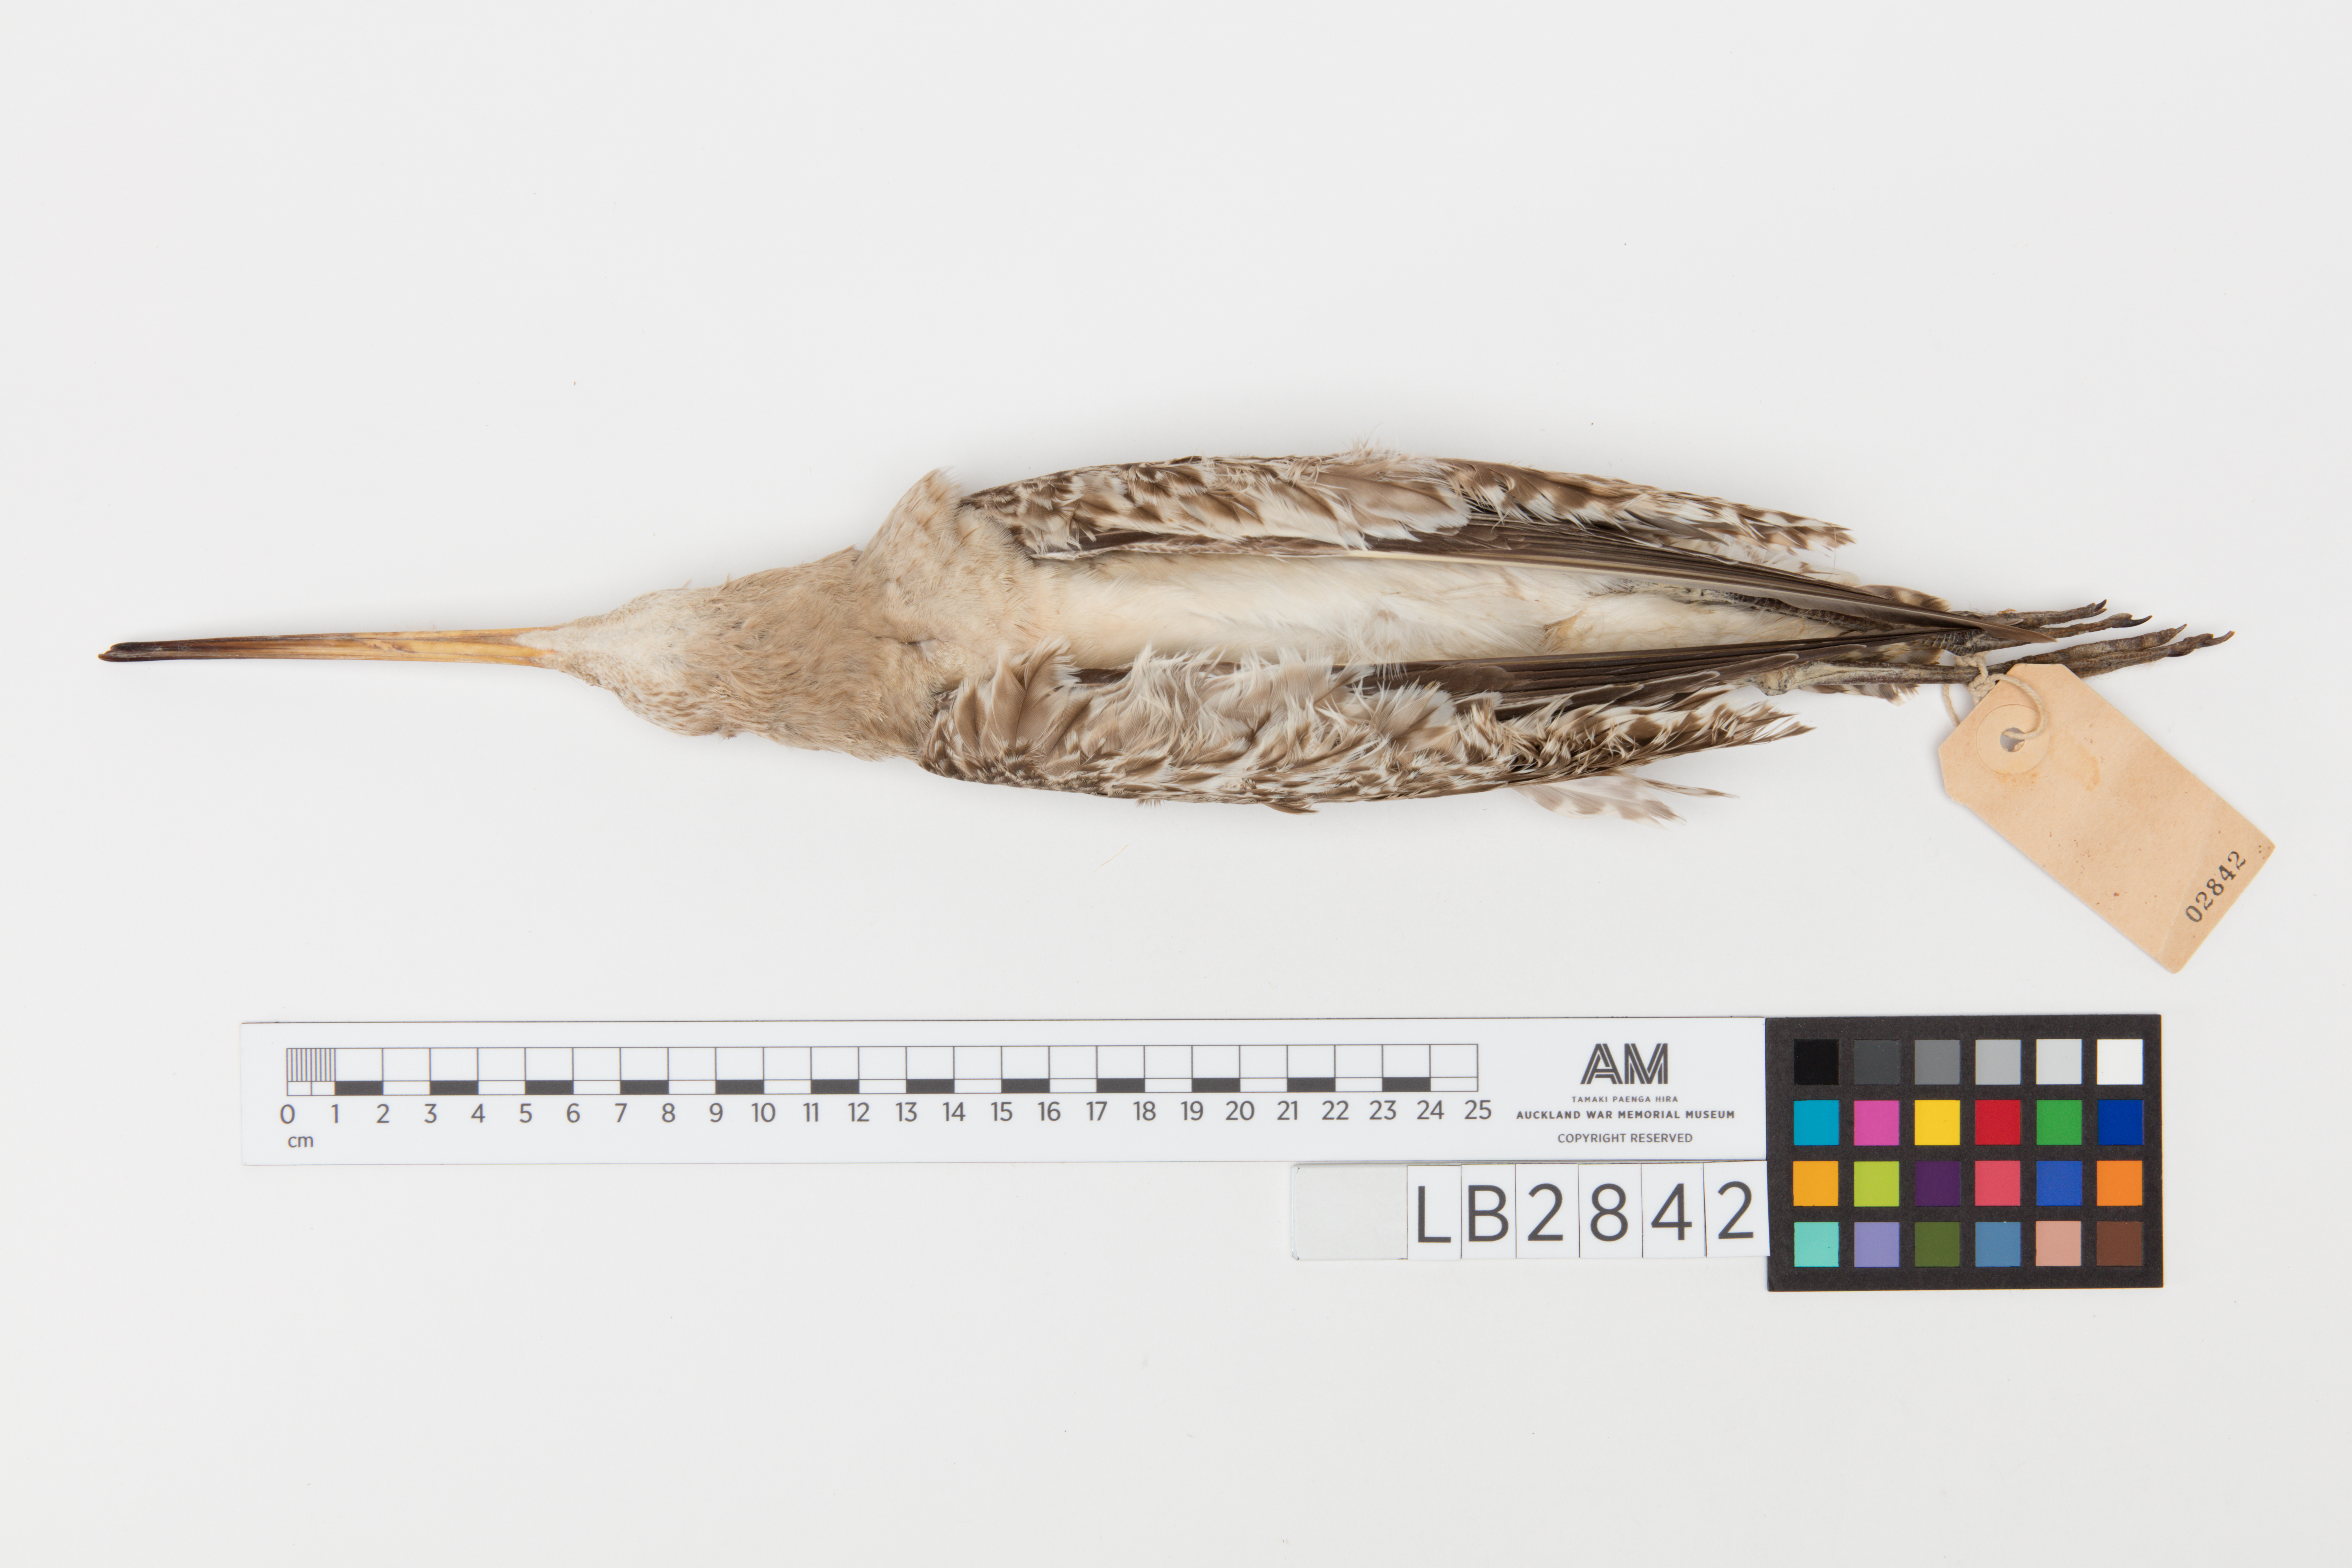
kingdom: Animalia
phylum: Chordata
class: Aves
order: Charadriiformes
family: Scolopacidae
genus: Limosa
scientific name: Limosa lapponica
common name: Bar-tailed godwit
